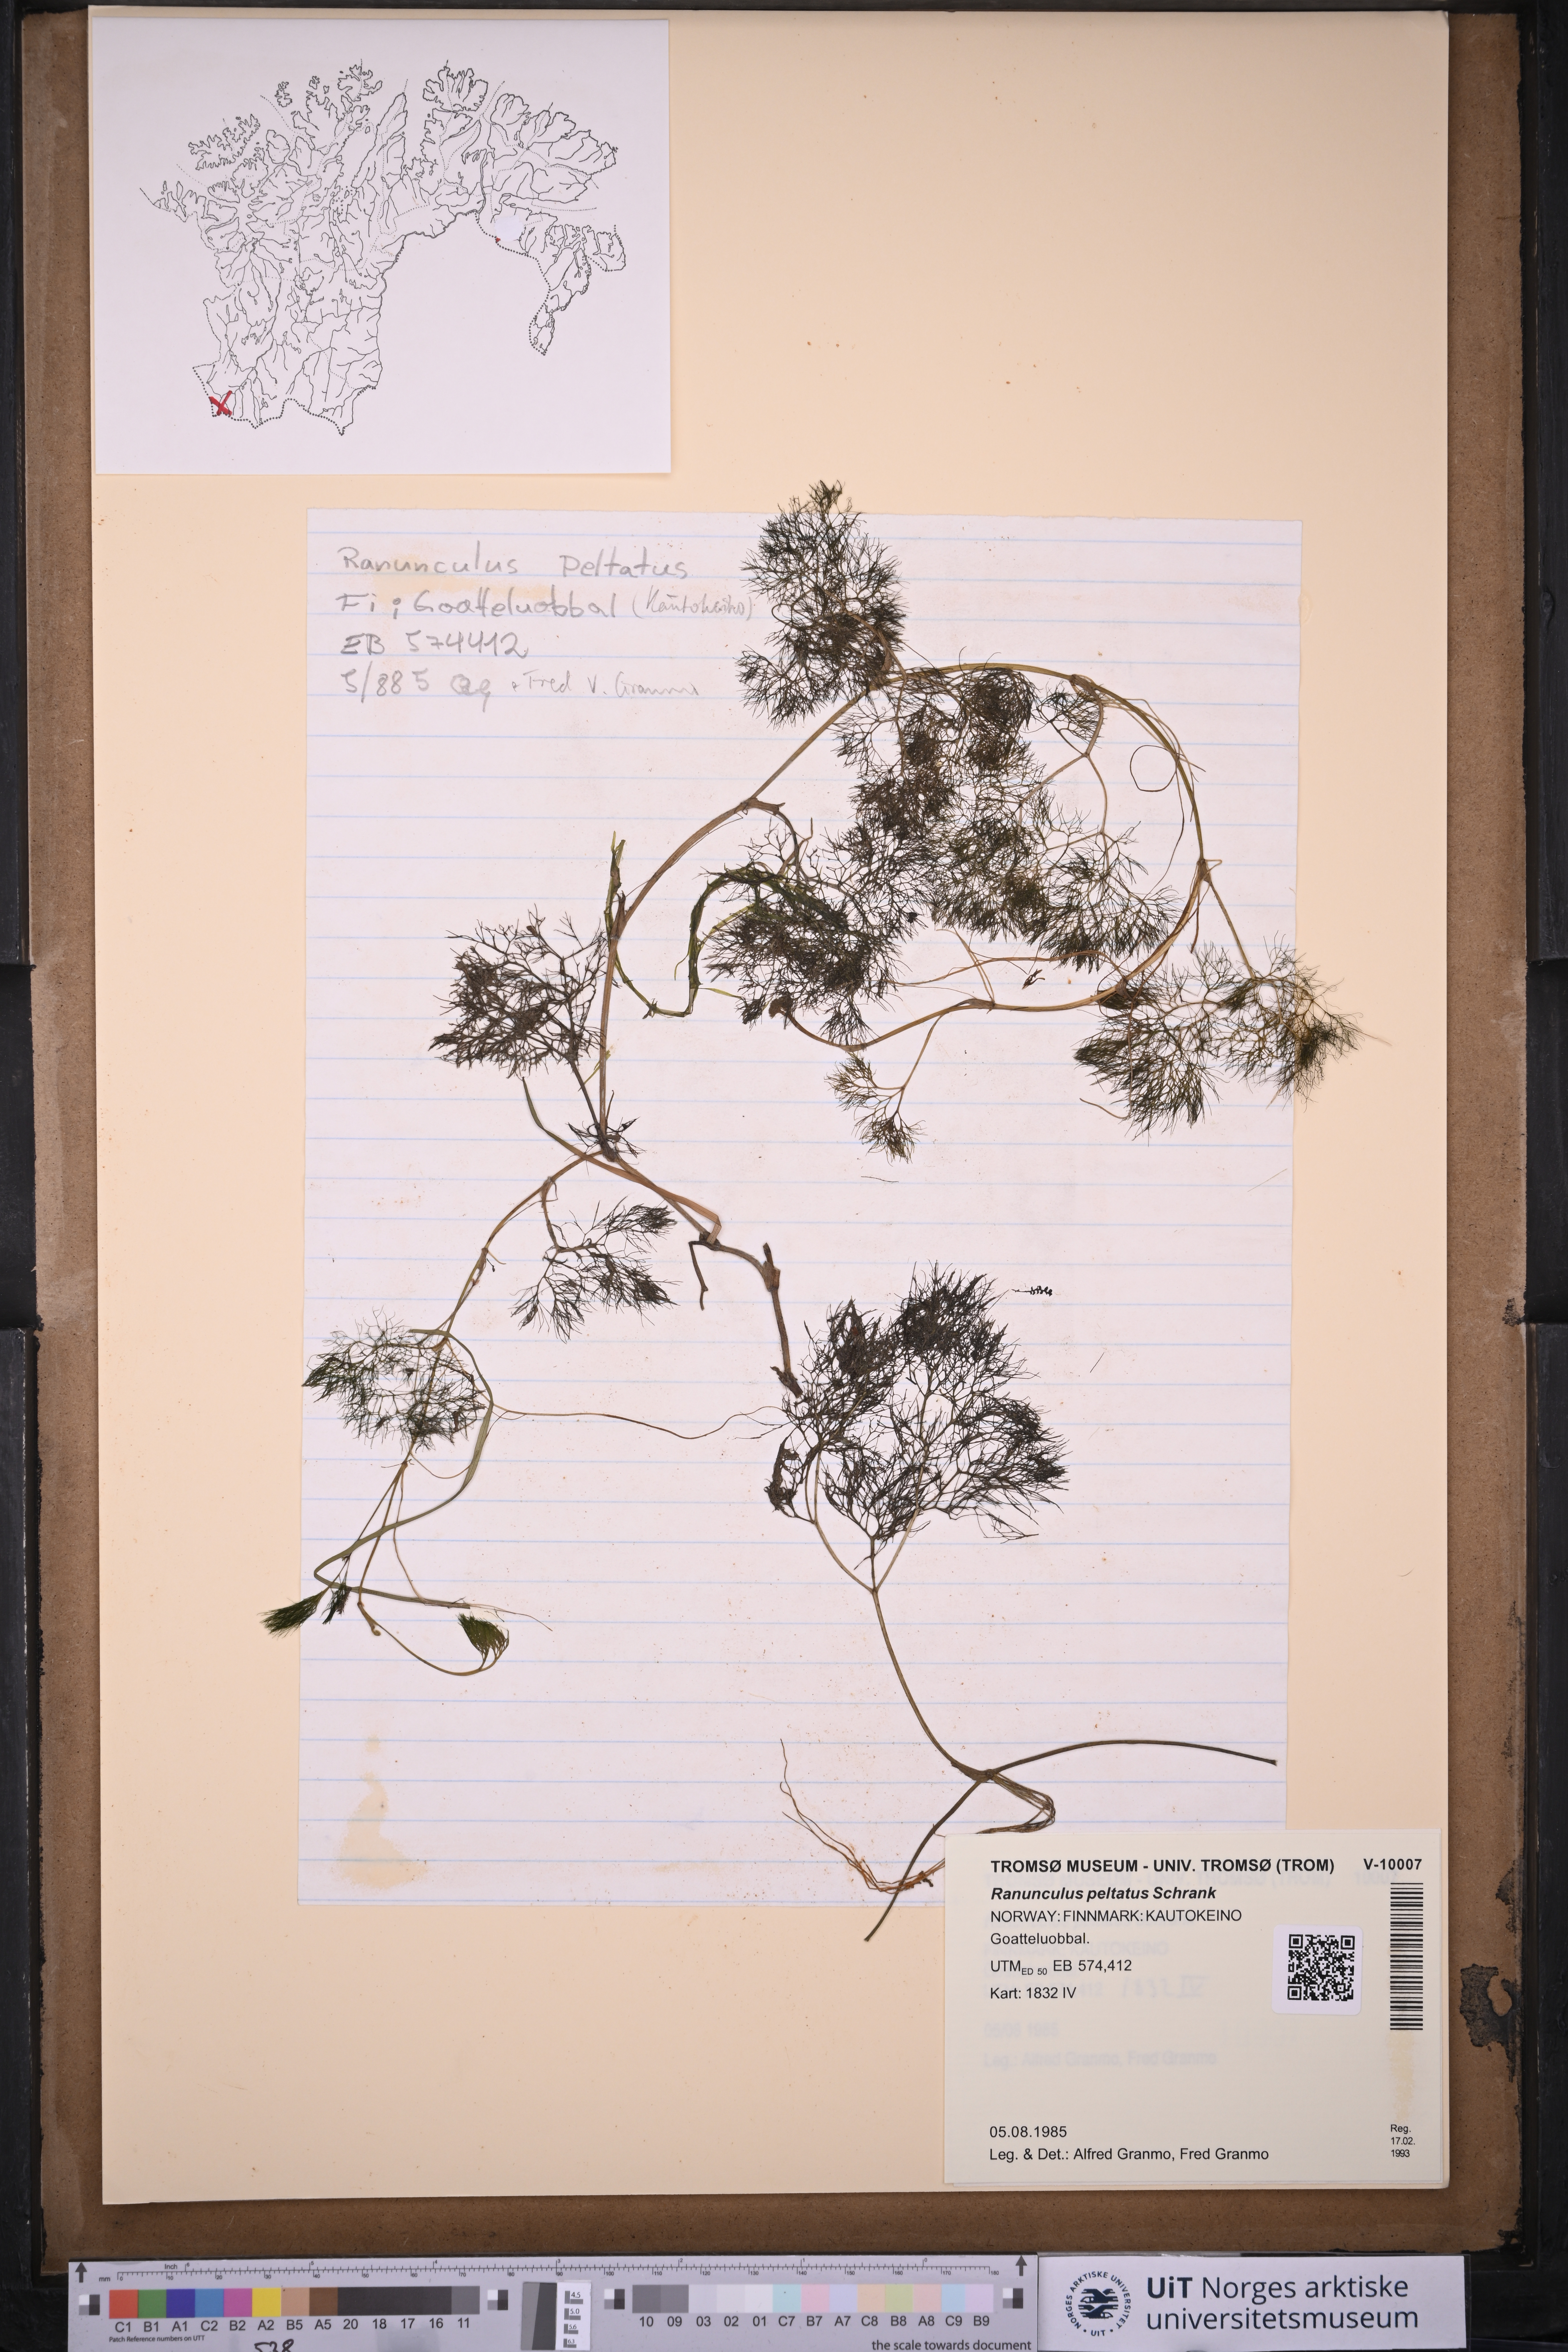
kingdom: Plantae
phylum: Tracheophyta
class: Magnoliopsida
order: Ranunculales
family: Ranunculaceae
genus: Ranunculus
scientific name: Ranunculus peltatus
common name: Pond water-crowfoot
